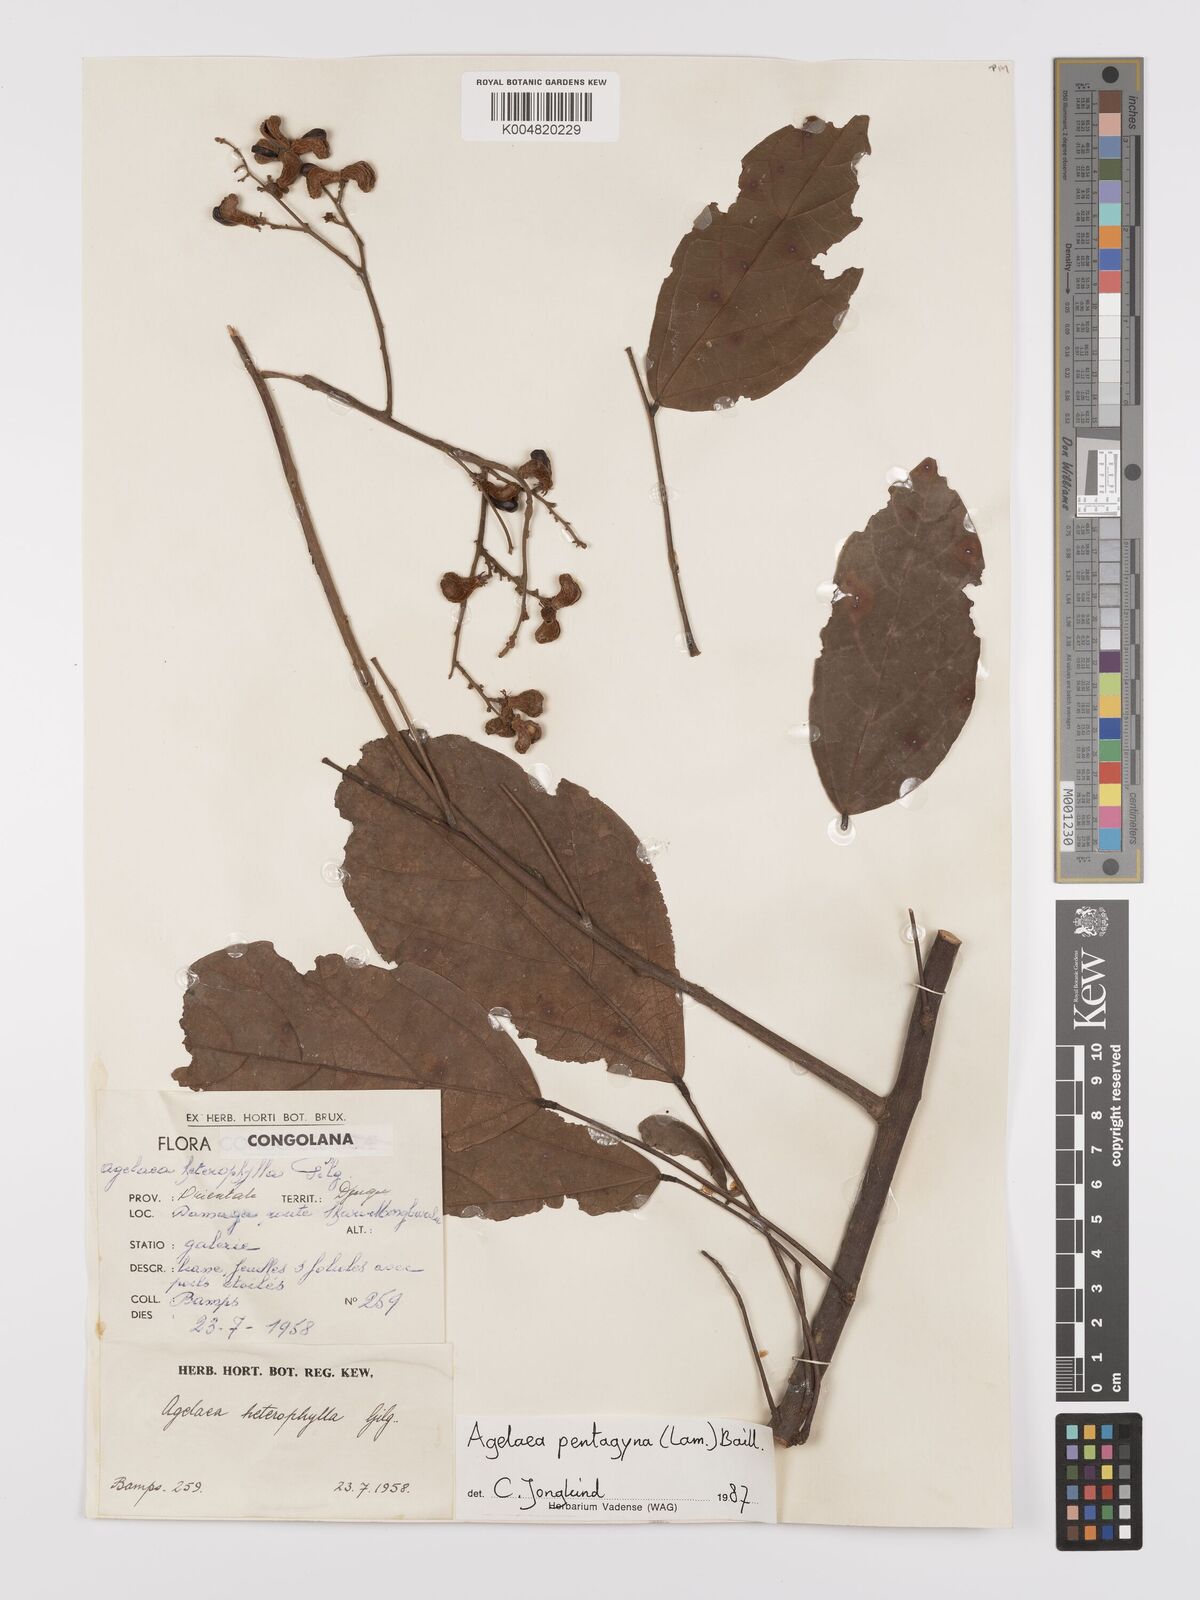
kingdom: Plantae
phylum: Tracheophyta
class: Magnoliopsida
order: Oxalidales
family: Connaraceae
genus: Agelaea
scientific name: Agelaea pentagyna
